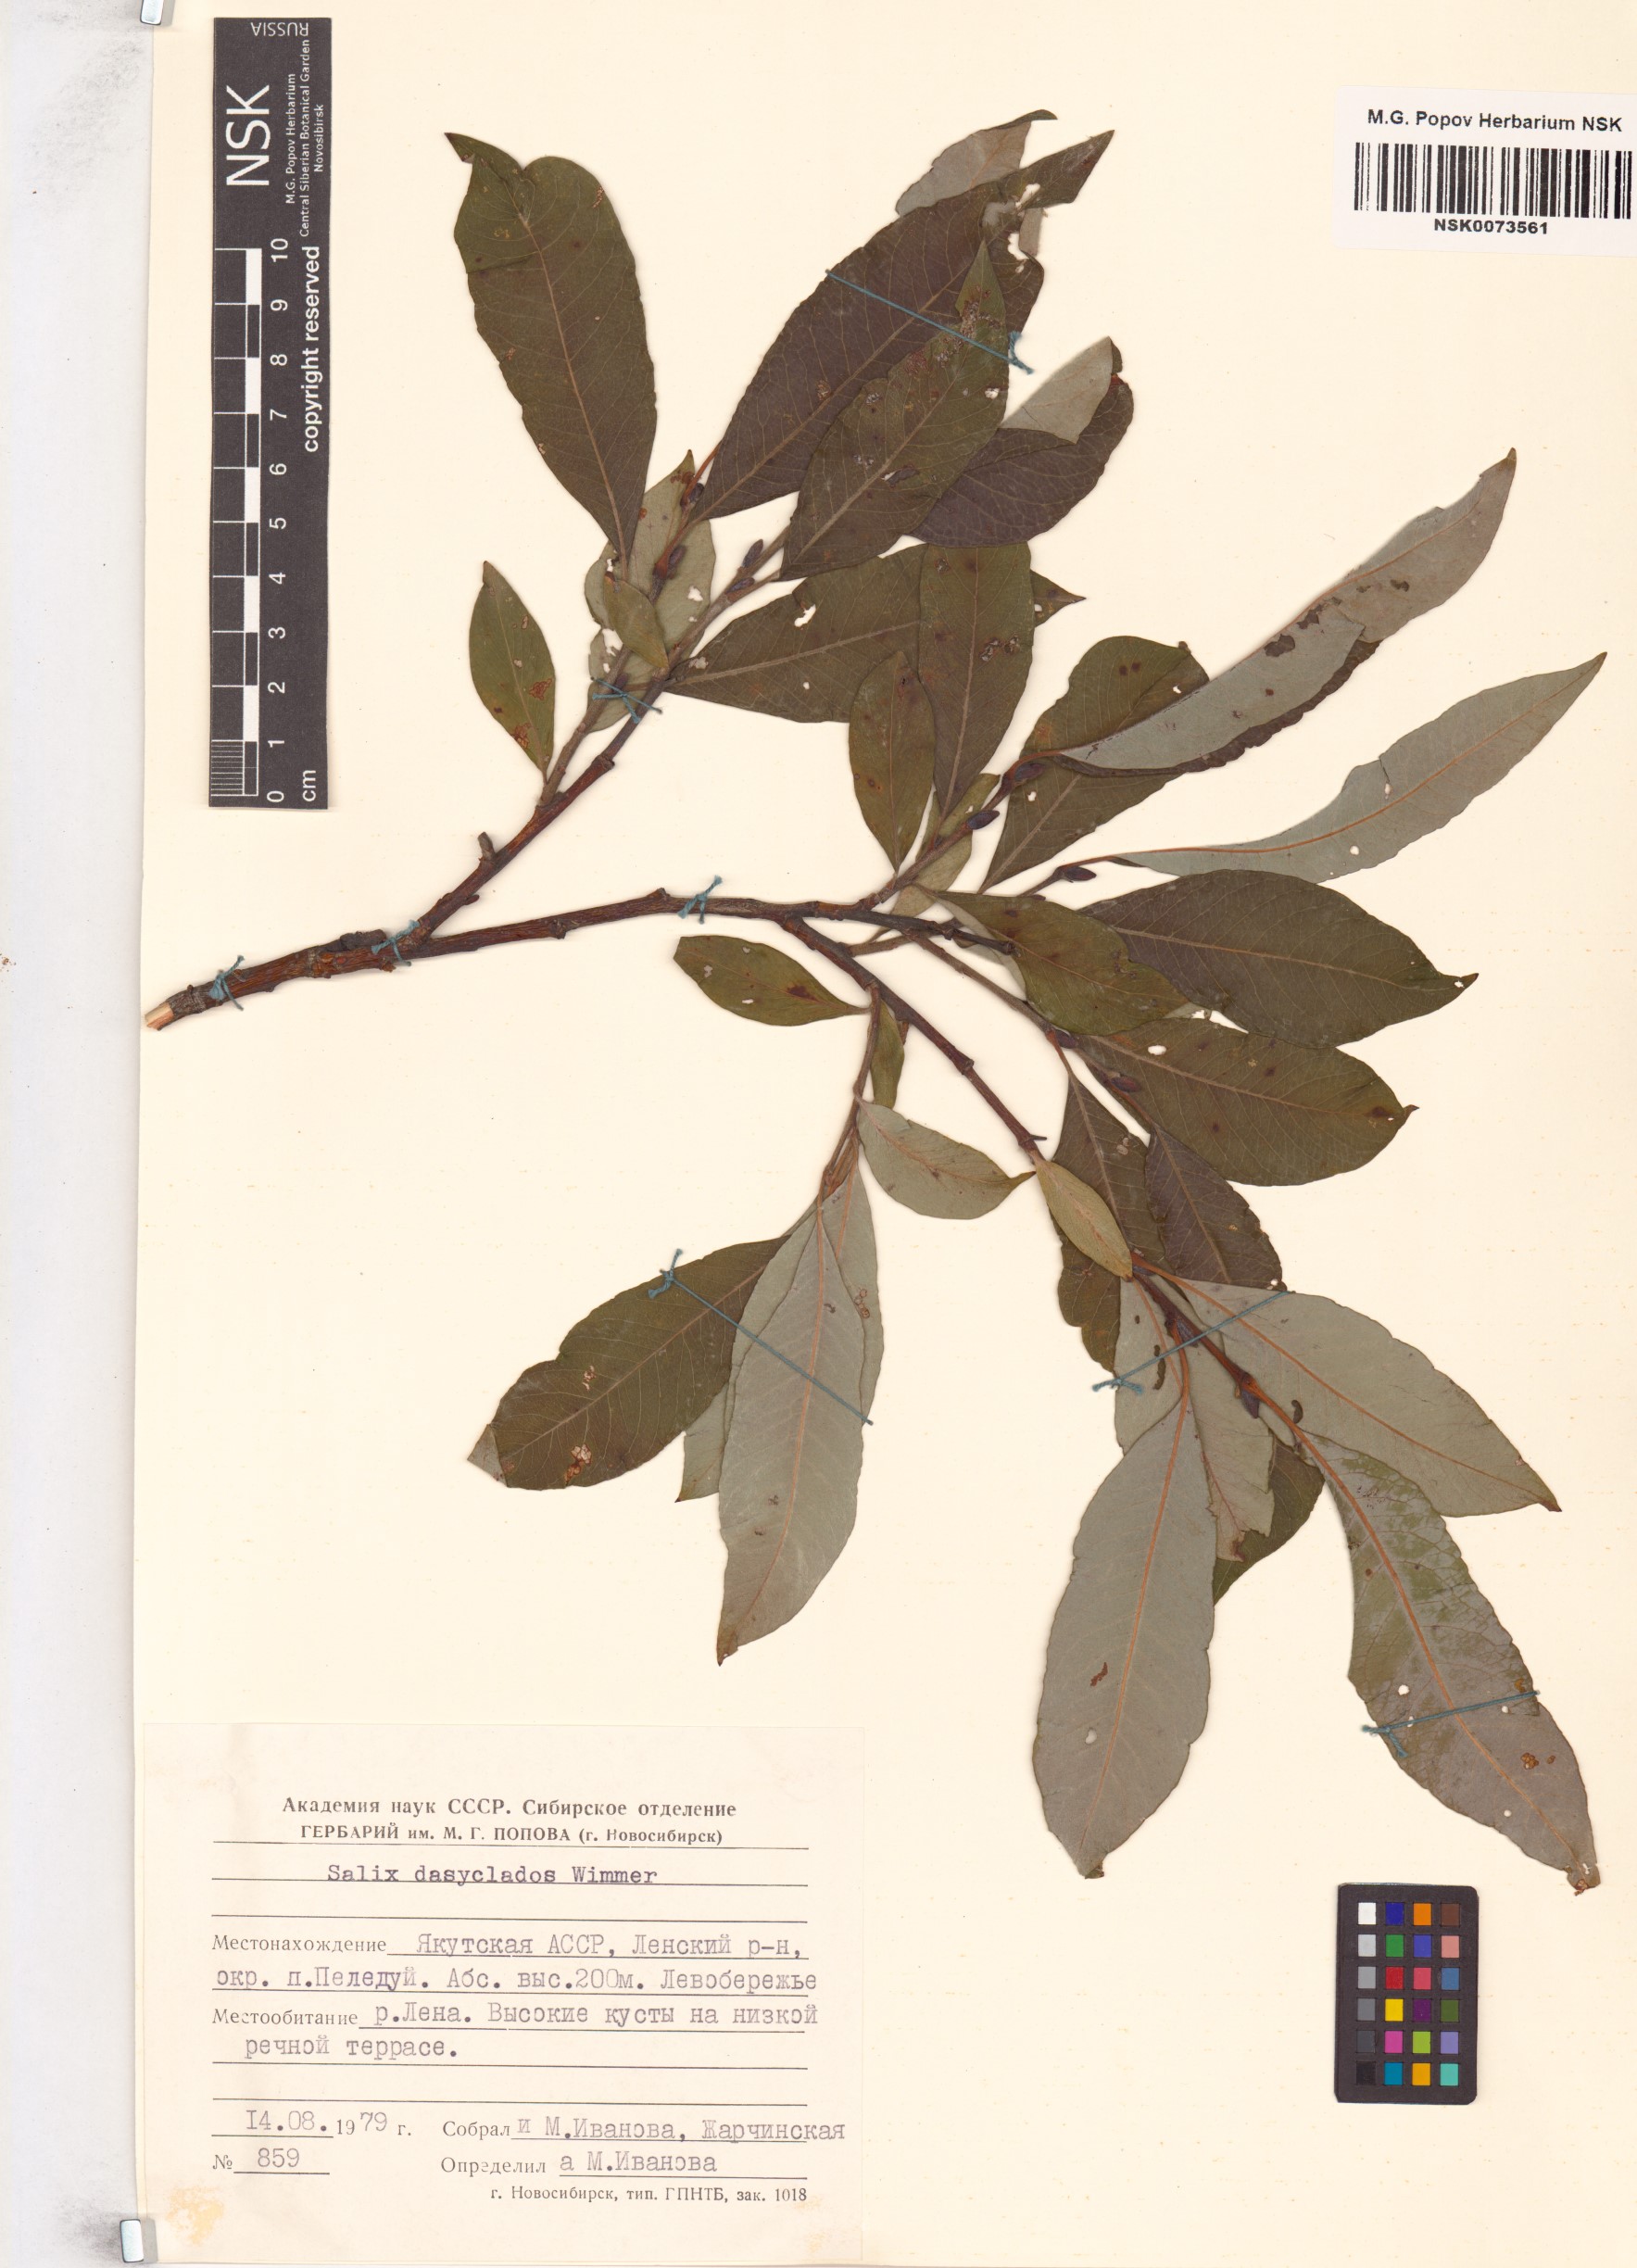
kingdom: Plantae
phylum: Tracheophyta
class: Magnoliopsida
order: Malpighiales
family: Salicaceae
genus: Salix
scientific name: Salix gmelinii
